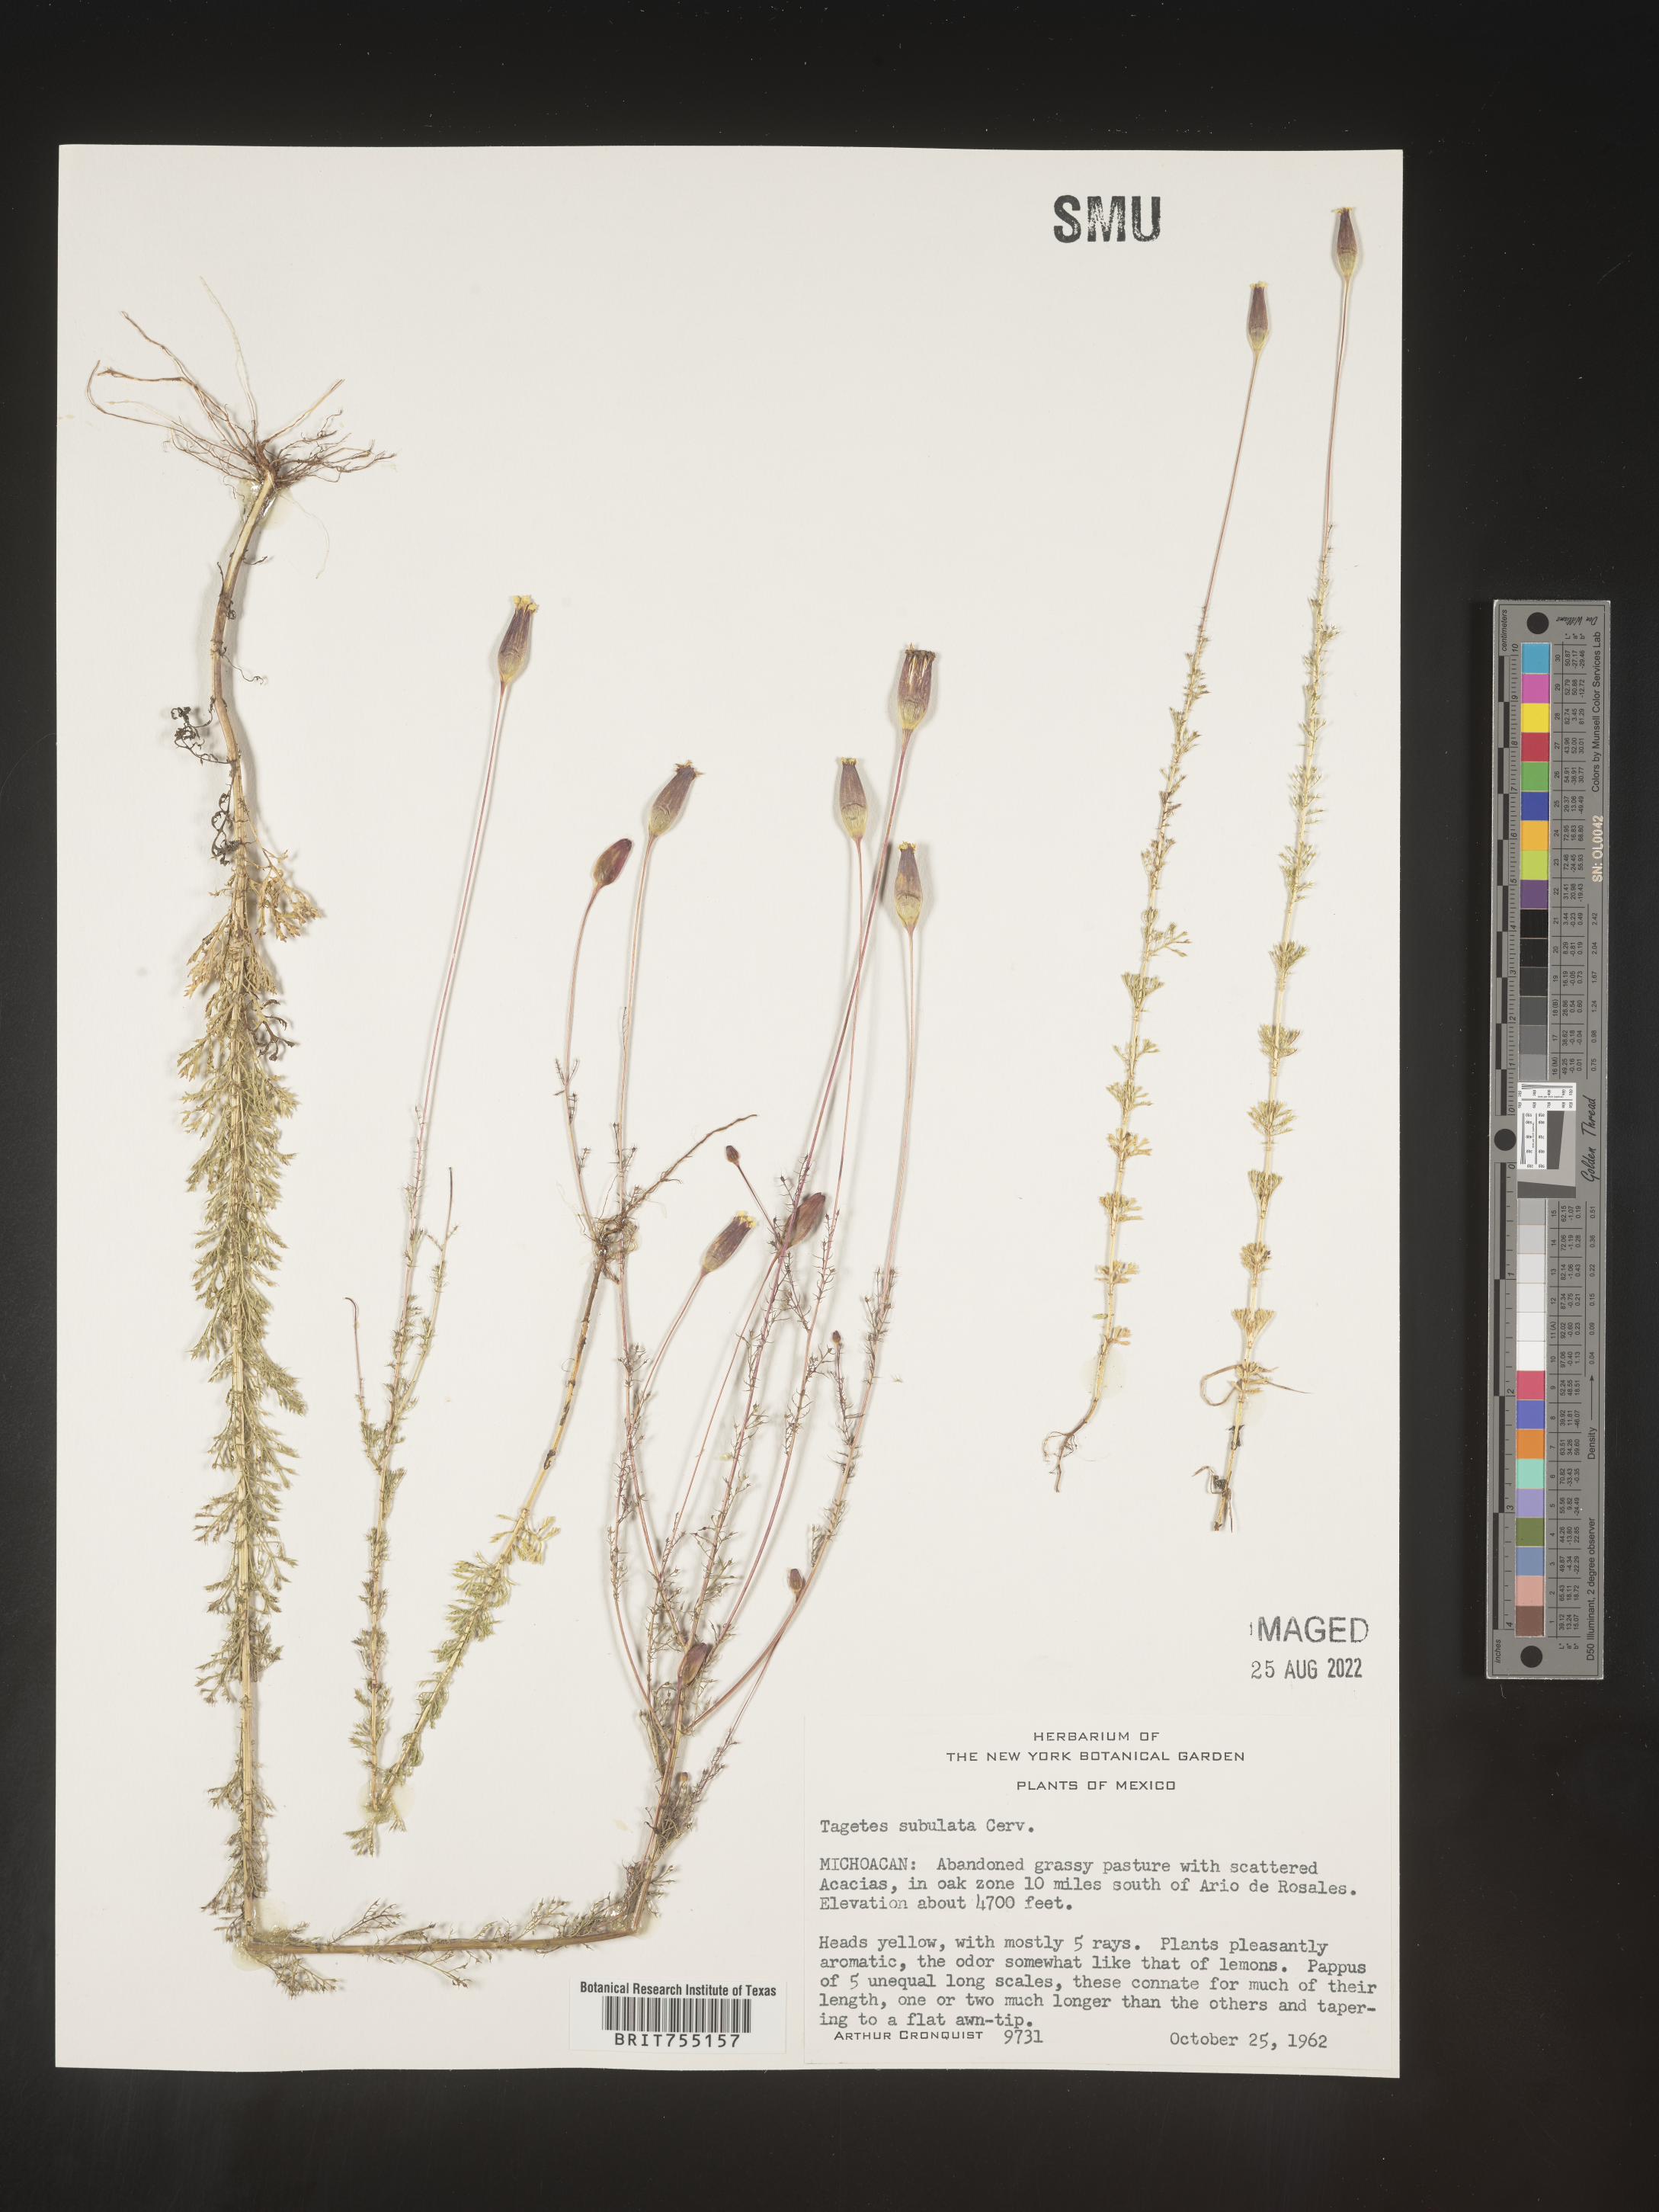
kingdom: Plantae
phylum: Tracheophyta
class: Magnoliopsida
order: Asterales
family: Asteraceae
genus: Tagetes
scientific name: Tagetes
